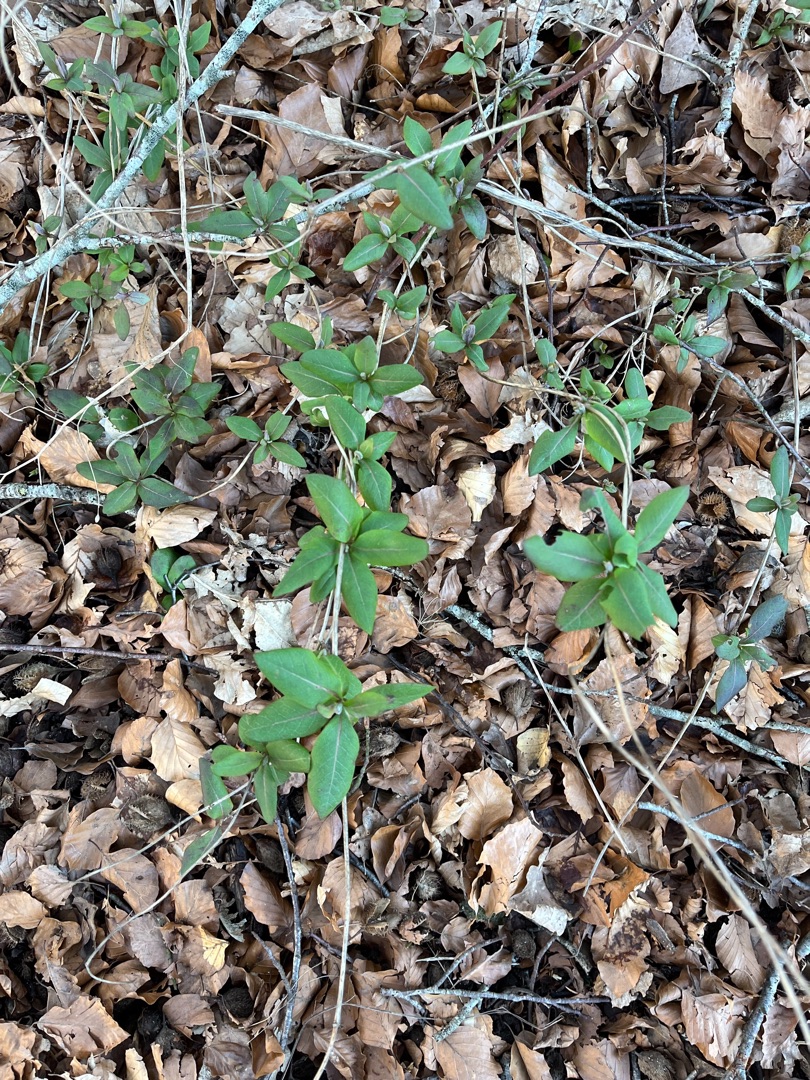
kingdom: Plantae
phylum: Tracheophyta
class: Magnoliopsida
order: Dipsacales
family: Caprifoliaceae
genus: Lonicera
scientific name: Lonicera periclymenum
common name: Almindelig gedeblad
